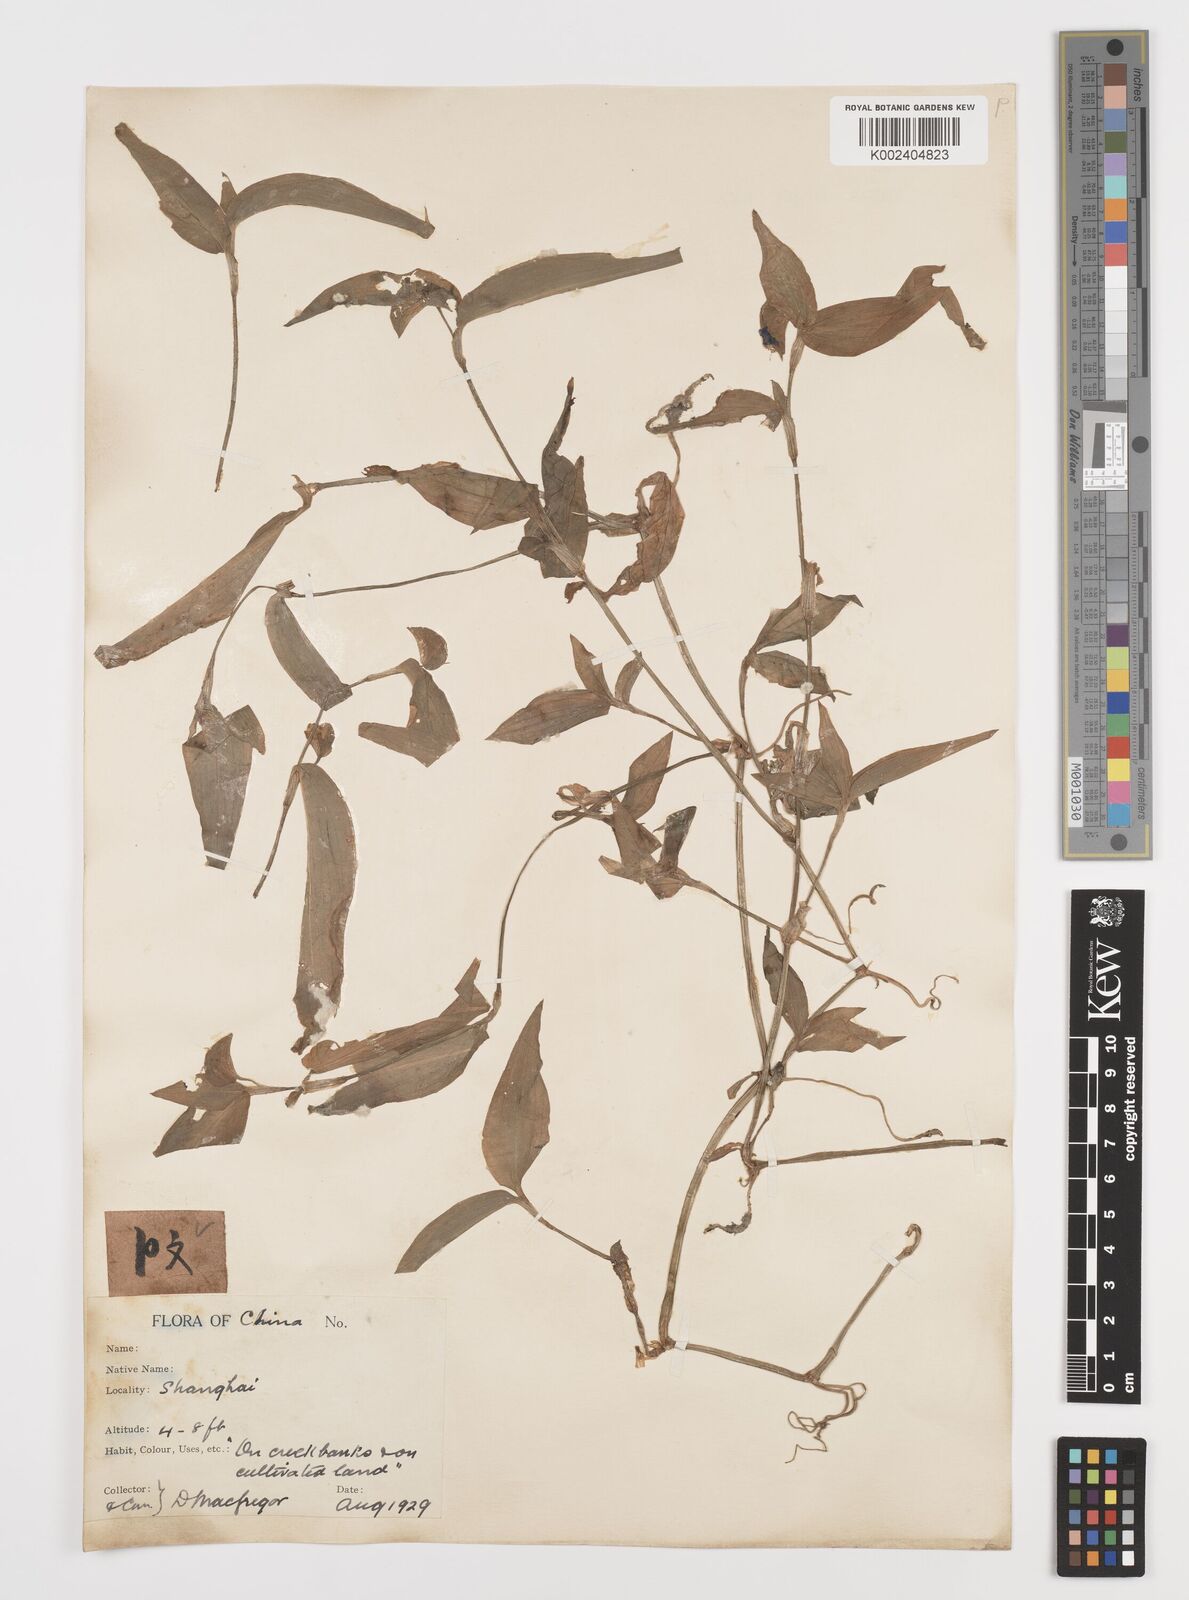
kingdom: Plantae
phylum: Tracheophyta
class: Liliopsida
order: Commelinales
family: Commelinaceae
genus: Commelina
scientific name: Commelina communis
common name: Asiatic dayflower
